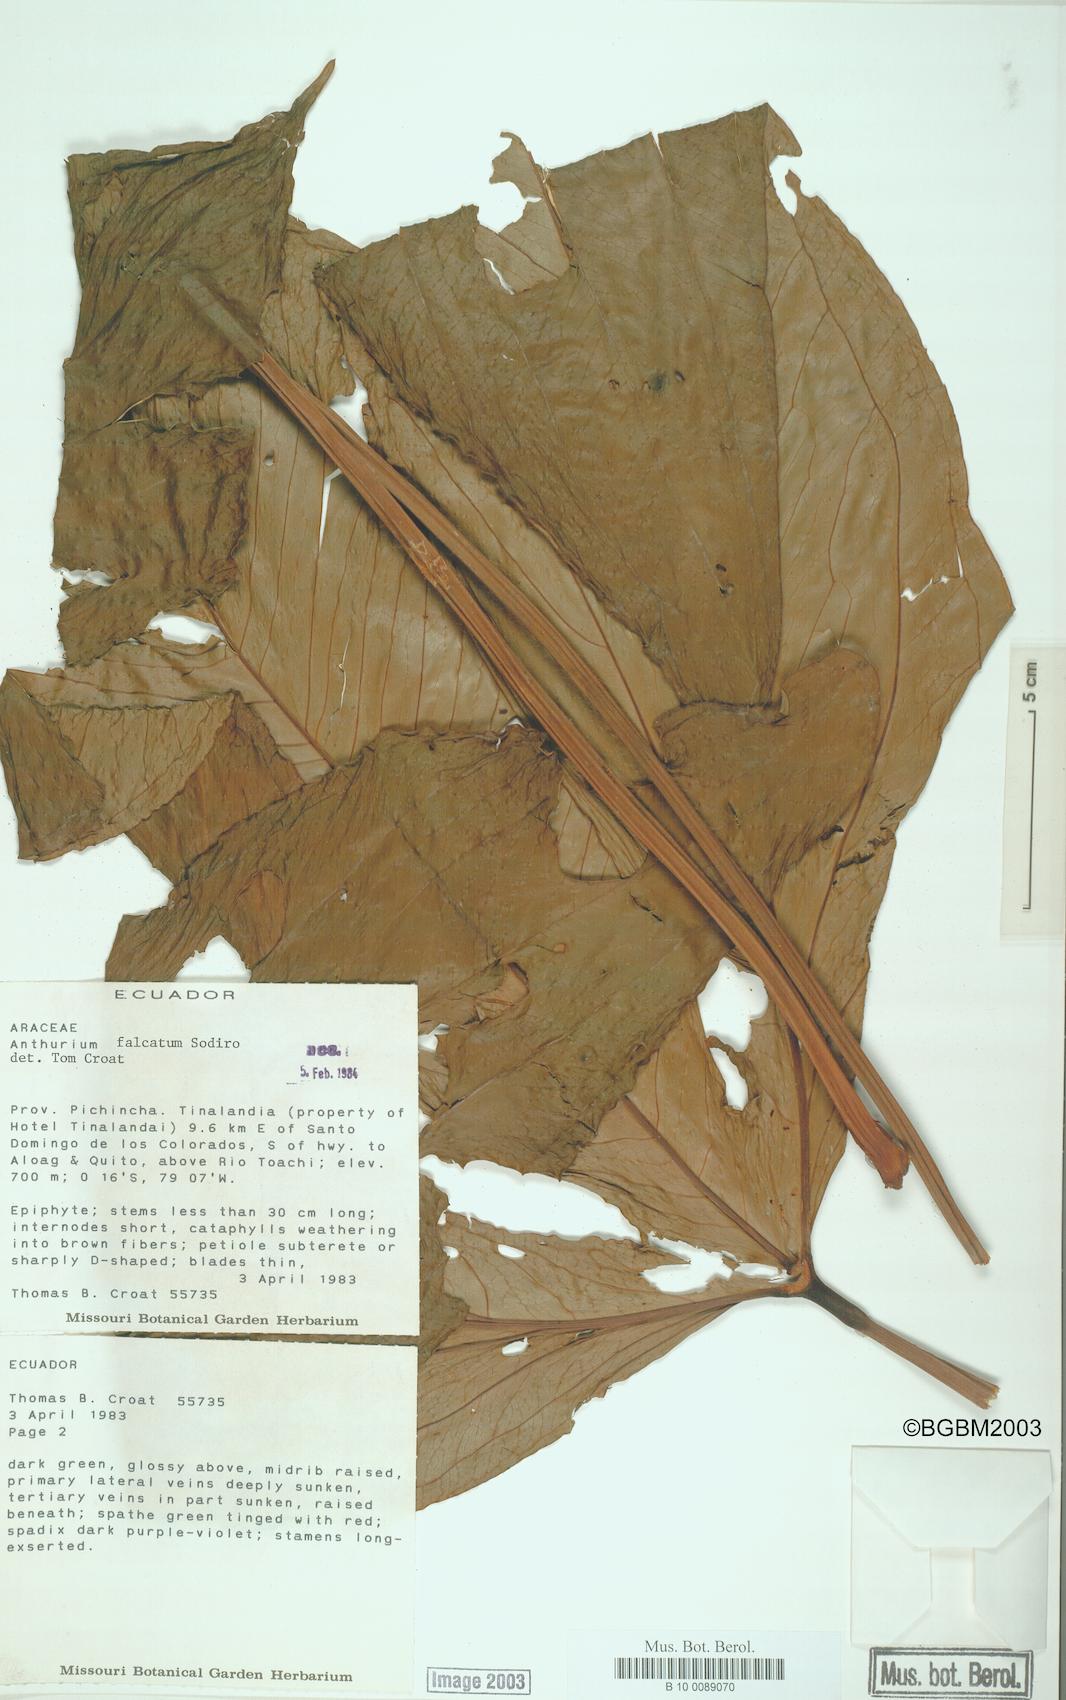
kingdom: Plantae
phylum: Tracheophyta
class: Liliopsida
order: Alismatales
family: Araceae
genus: Anthurium
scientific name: Anthurium rimbachii
